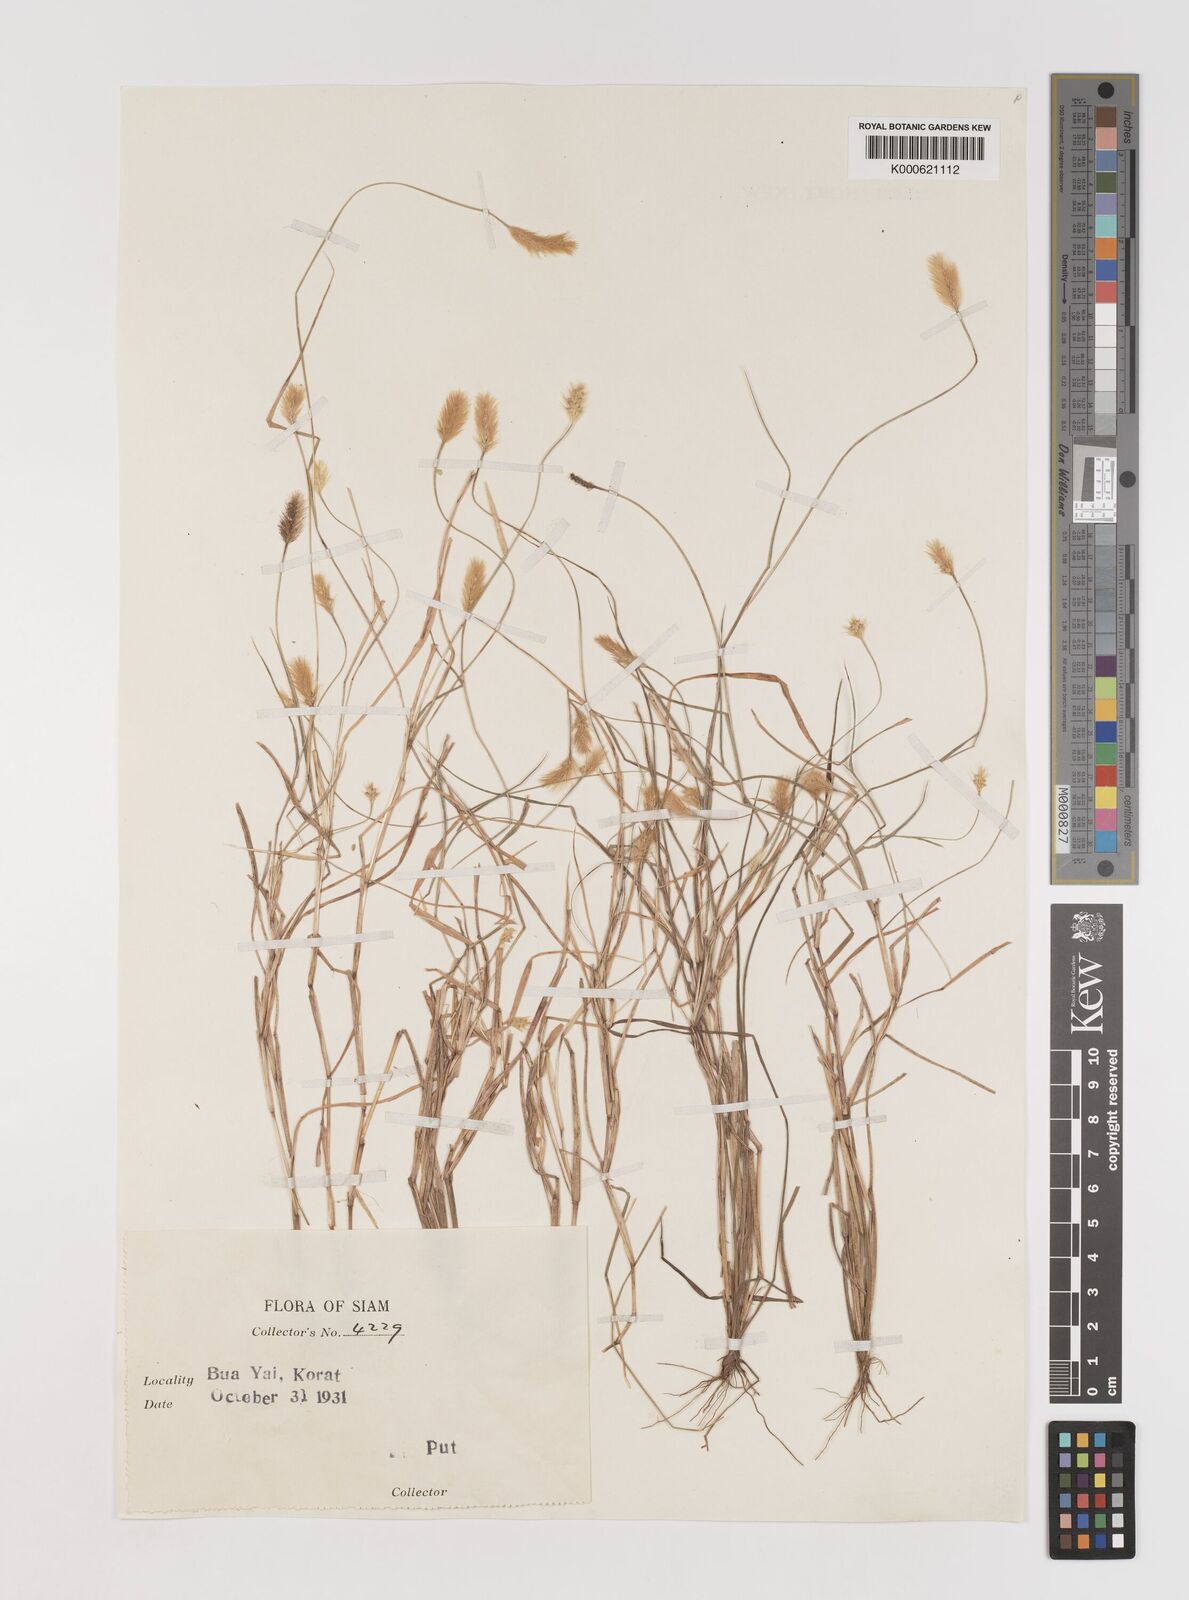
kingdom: Plantae
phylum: Tracheophyta
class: Liliopsida
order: Poales
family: Poaceae
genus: Setaria
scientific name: Setaria pumila
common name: Yellow bristle-grass
